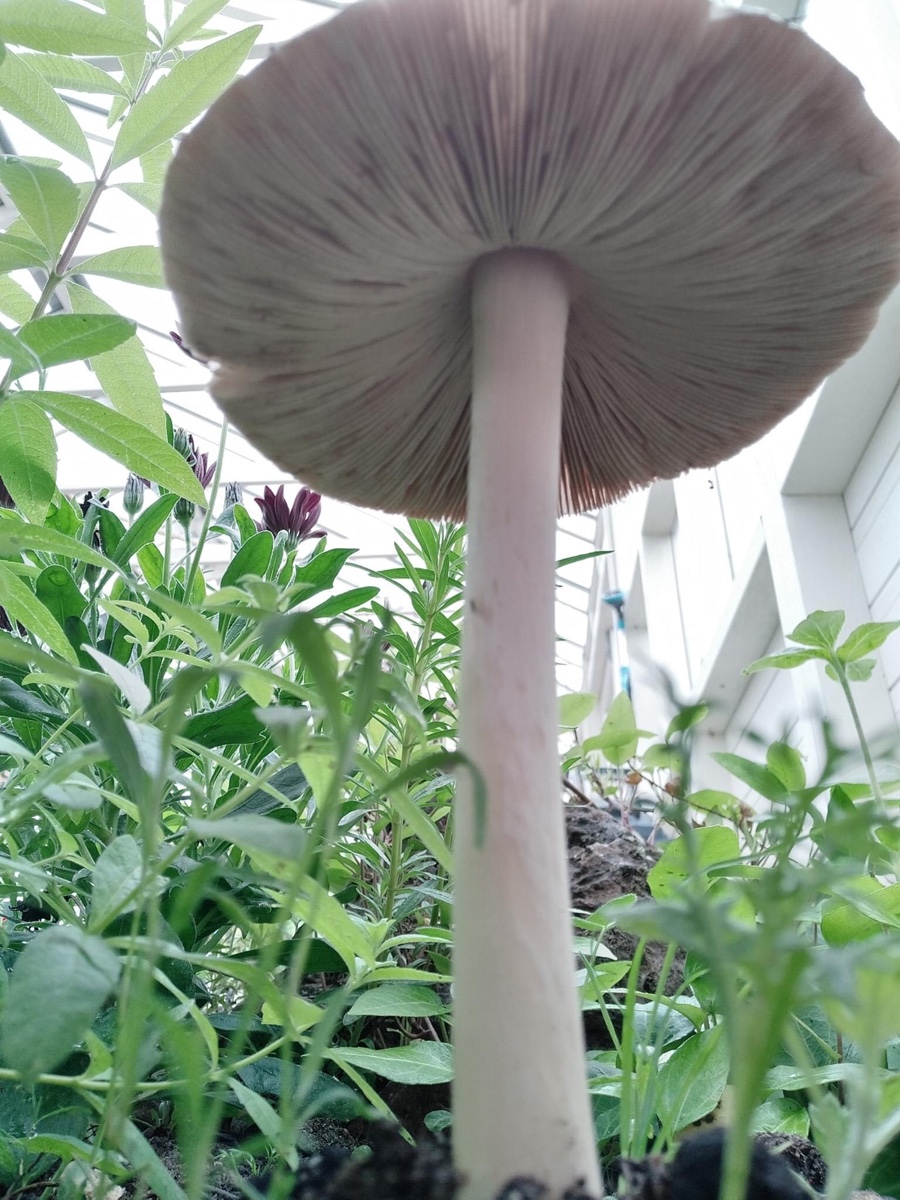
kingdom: Fungi
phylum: Basidiomycota
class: Agaricomycetes
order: Agaricales
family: Pluteaceae
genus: Volvopluteus
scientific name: Volvopluteus gloiocephalus
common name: høj posesvamp
